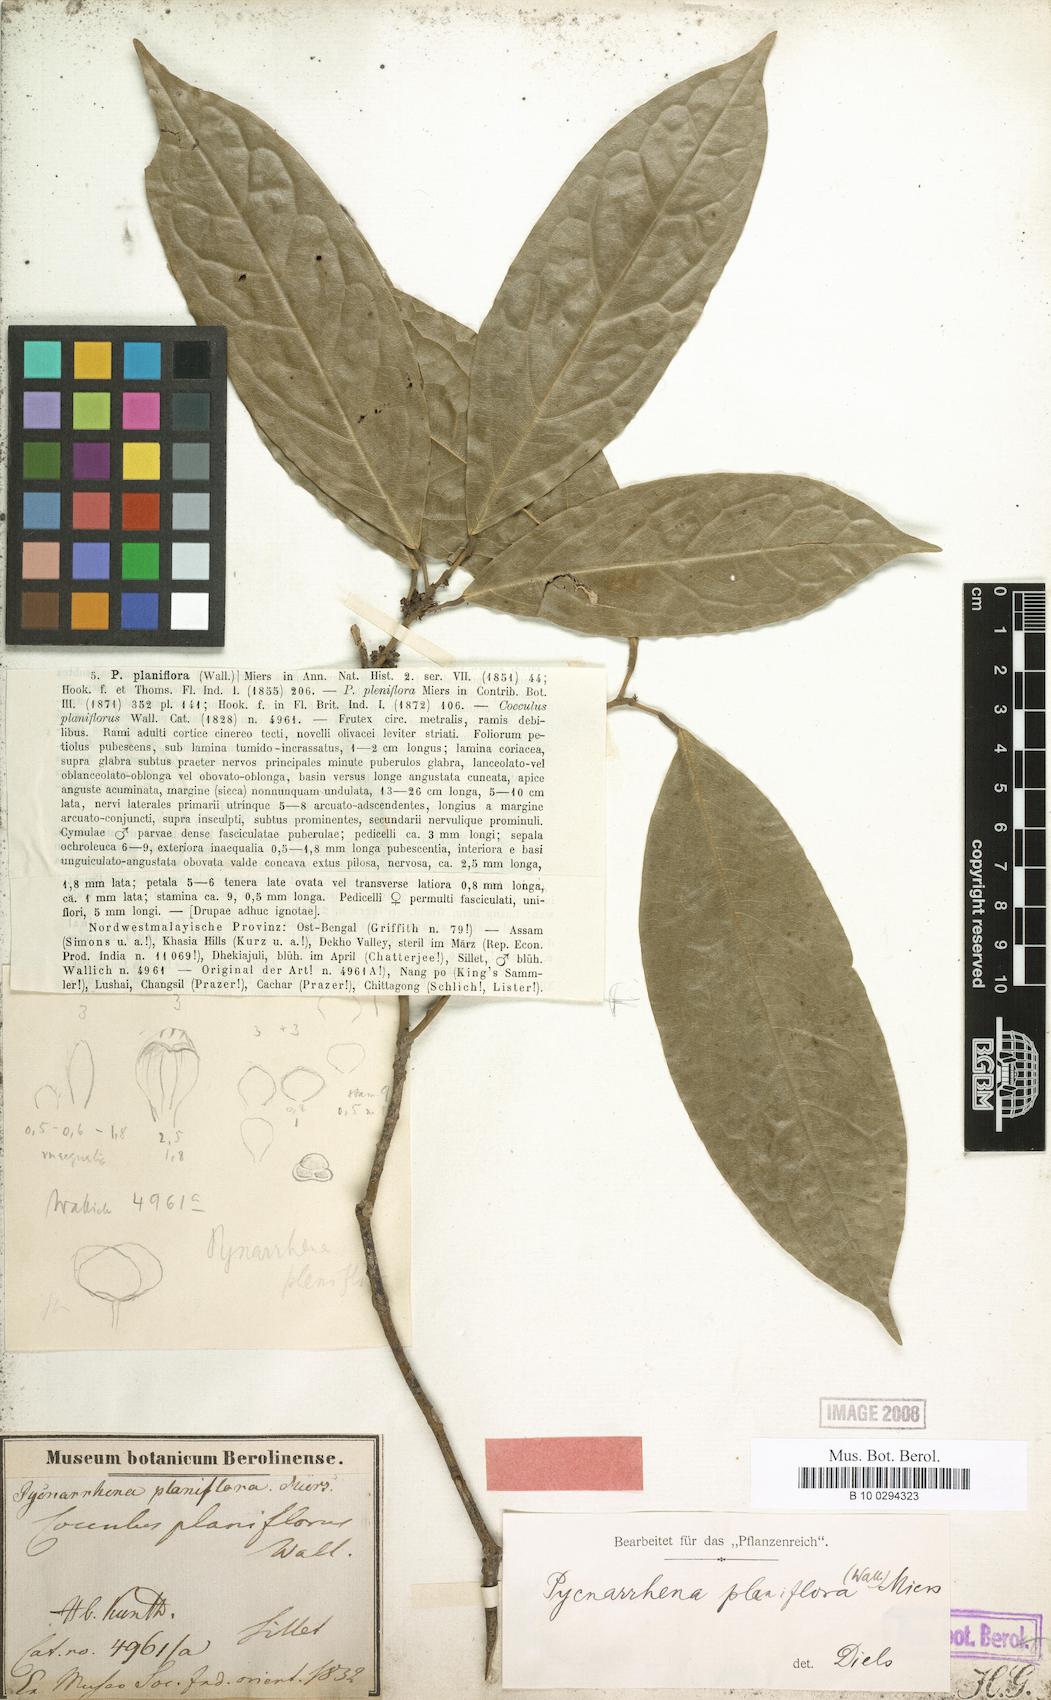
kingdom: Plantae
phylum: Tracheophyta
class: Magnoliopsida
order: Ranunculales
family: Menispermaceae
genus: Pycnarrhena
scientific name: Pycnarrhena planiflora
